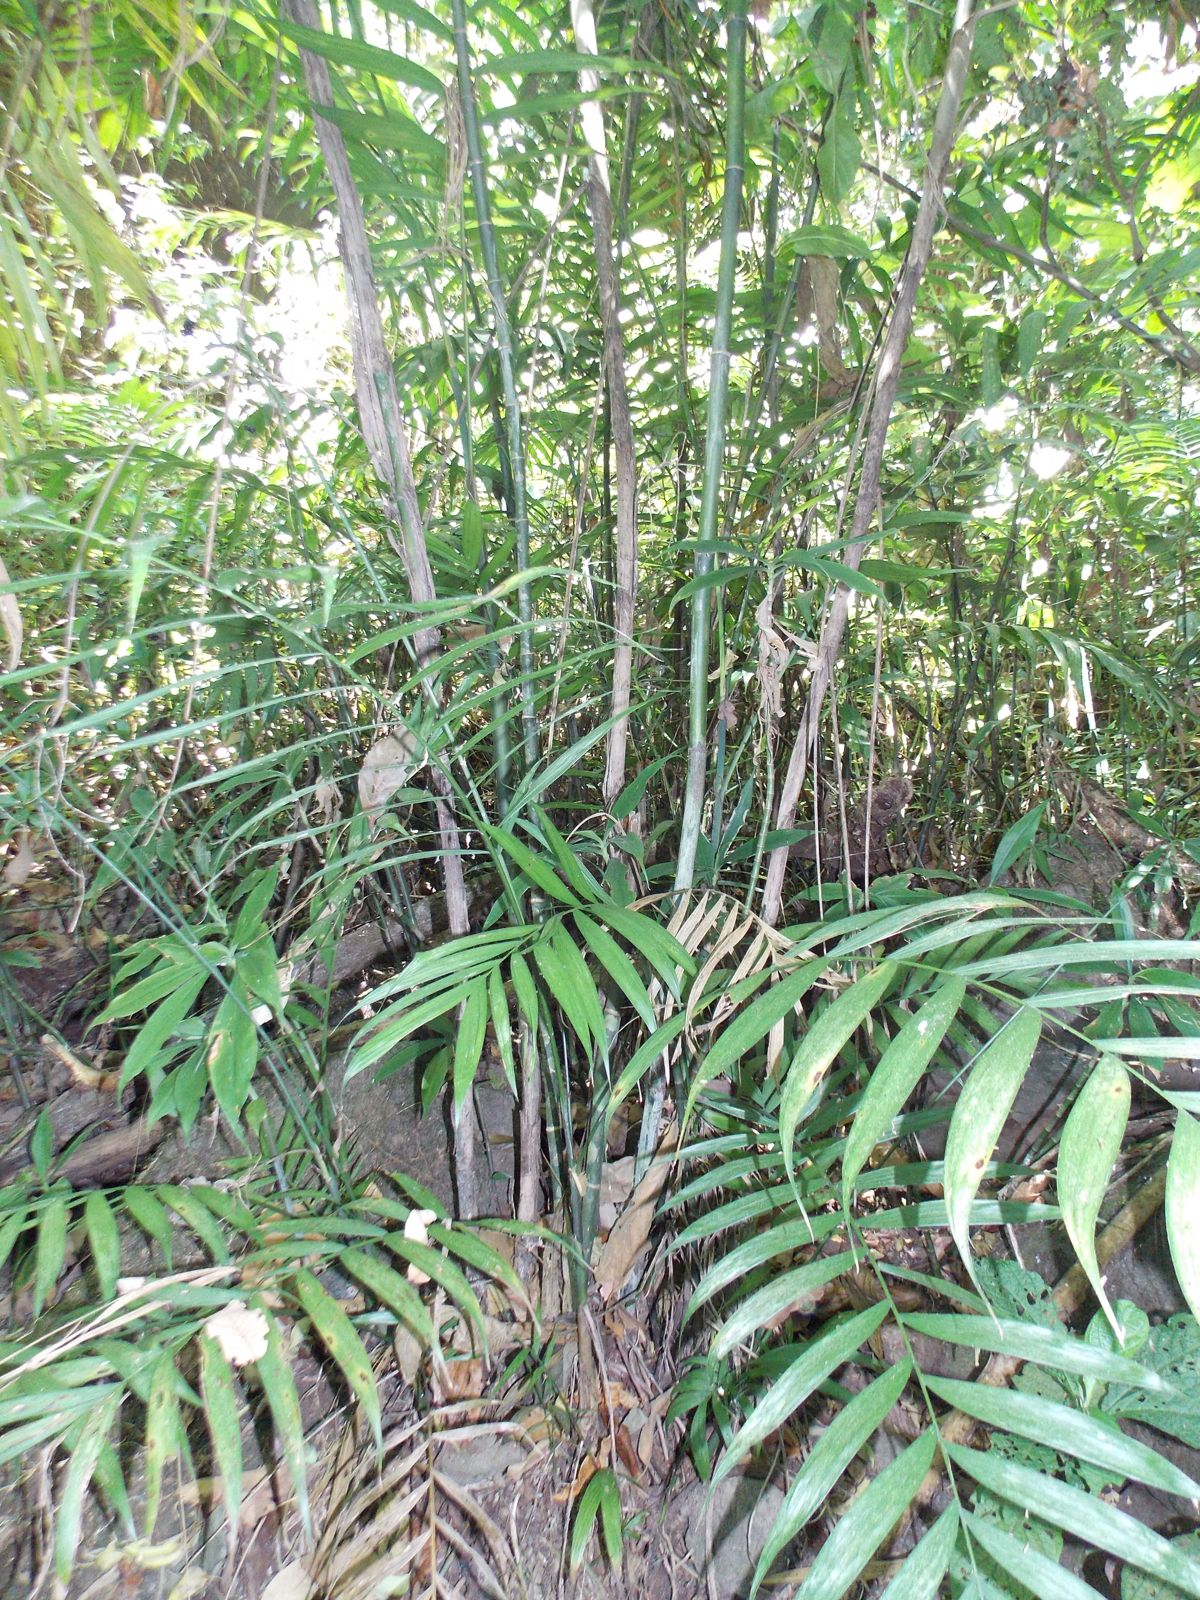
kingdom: Plantae
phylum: Tracheophyta
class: Liliopsida
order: Arecales
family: Arecaceae
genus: Chamaedorea
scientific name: Chamaedorea costaricana
